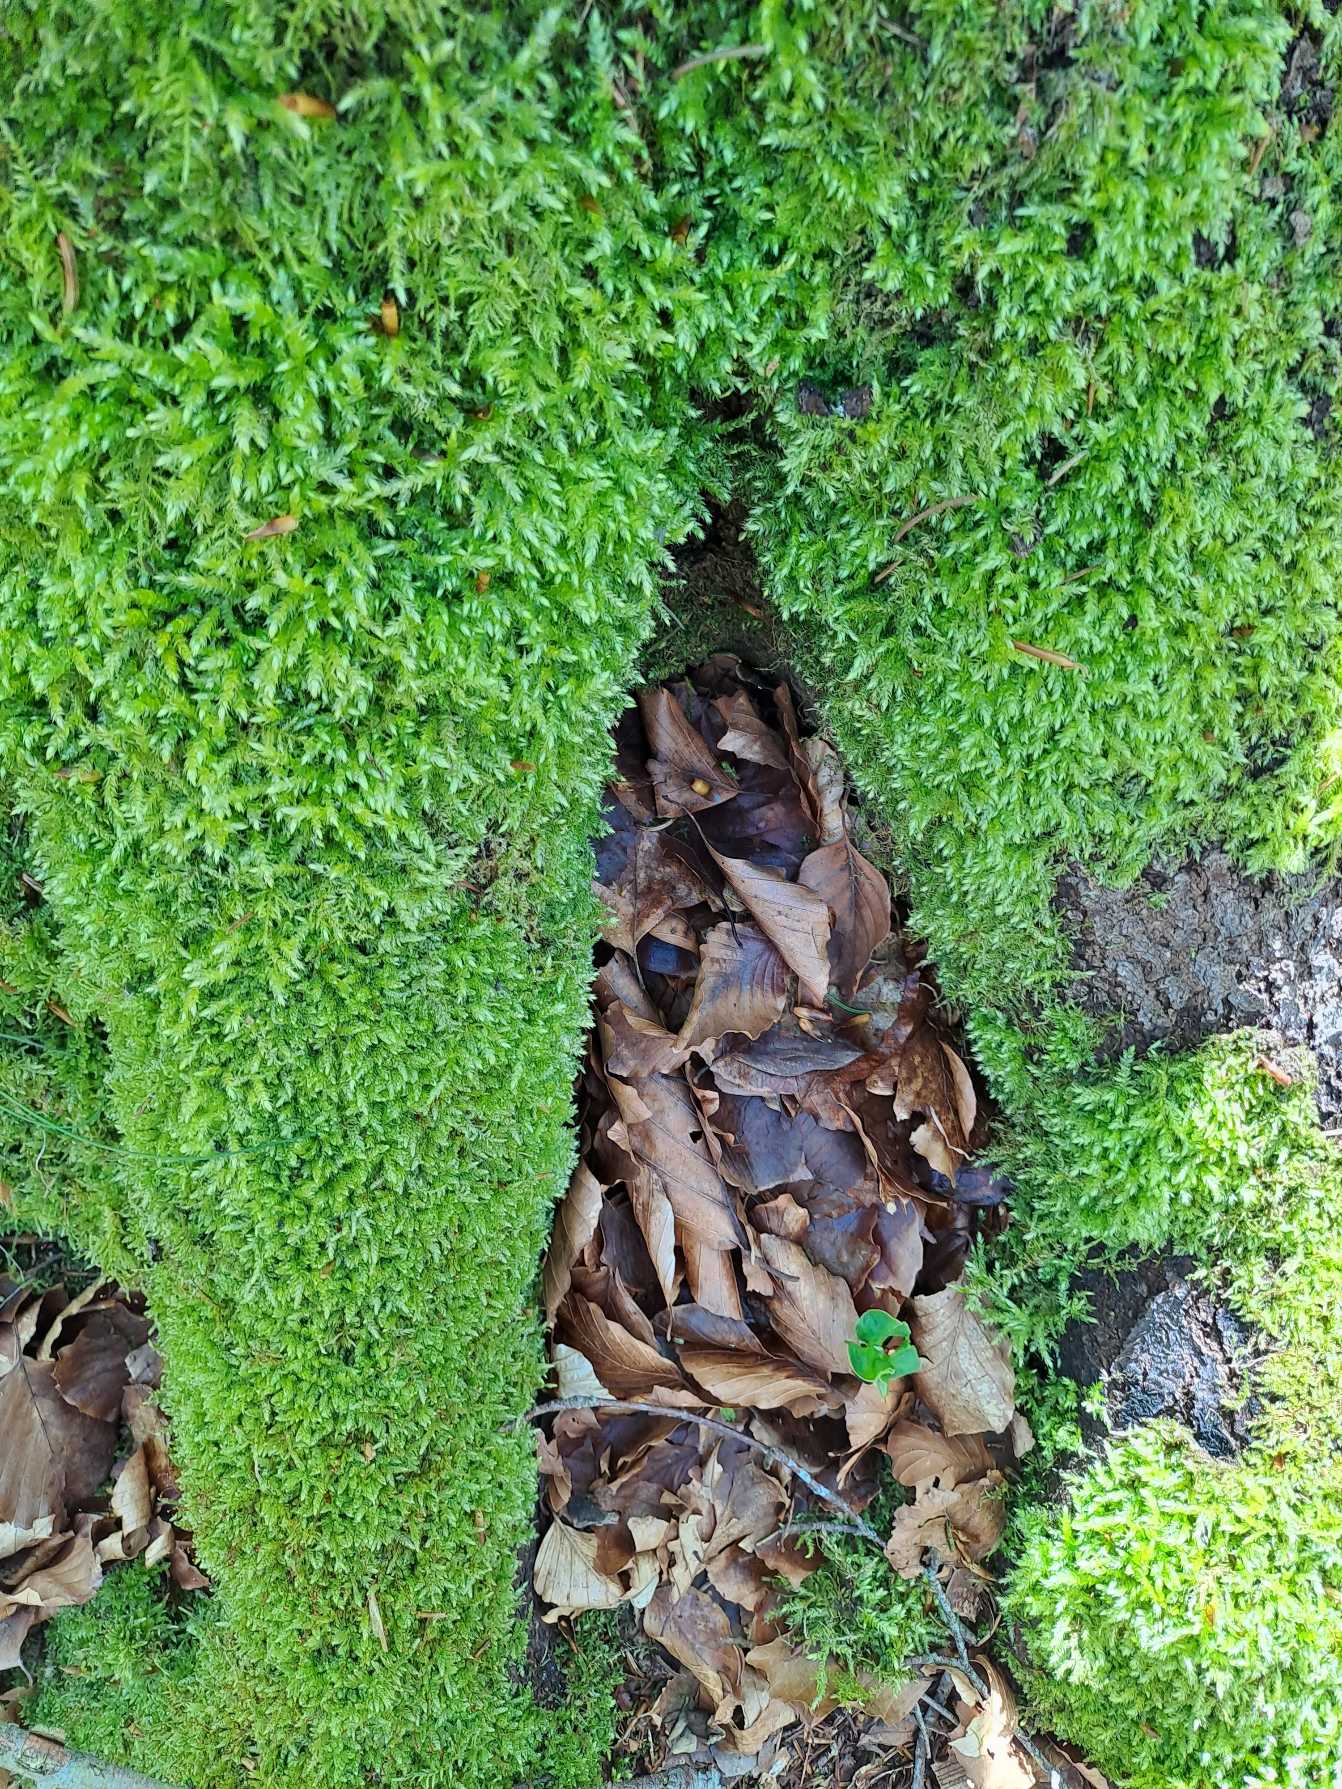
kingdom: Plantae
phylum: Bryophyta
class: Bryopsida
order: Hypnales
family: Brachytheciaceae
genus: Brachythecium
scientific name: Brachythecium rutabulum
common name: Almindelig kortkapsel
